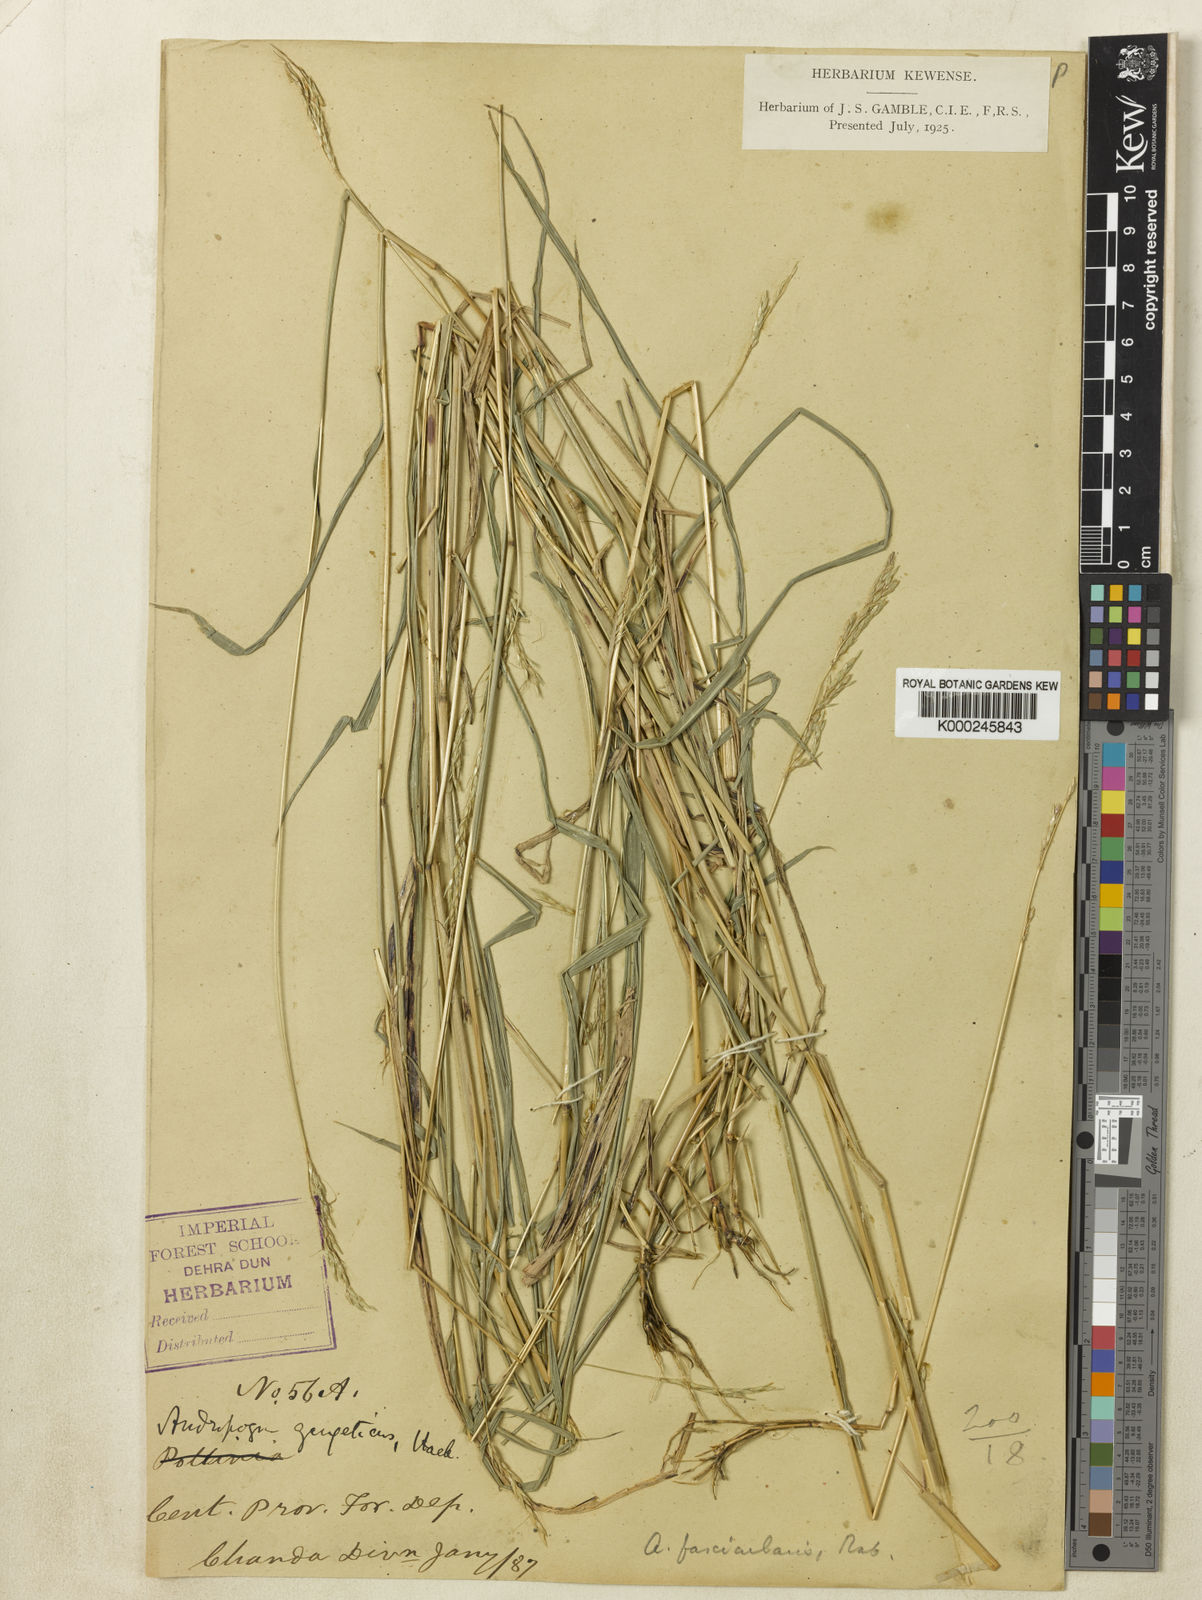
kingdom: Plantae
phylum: Tracheophyta
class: Liliopsida
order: Poales
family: Poaceae
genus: Pseudosorghum
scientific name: Pseudosorghum fasciculare
